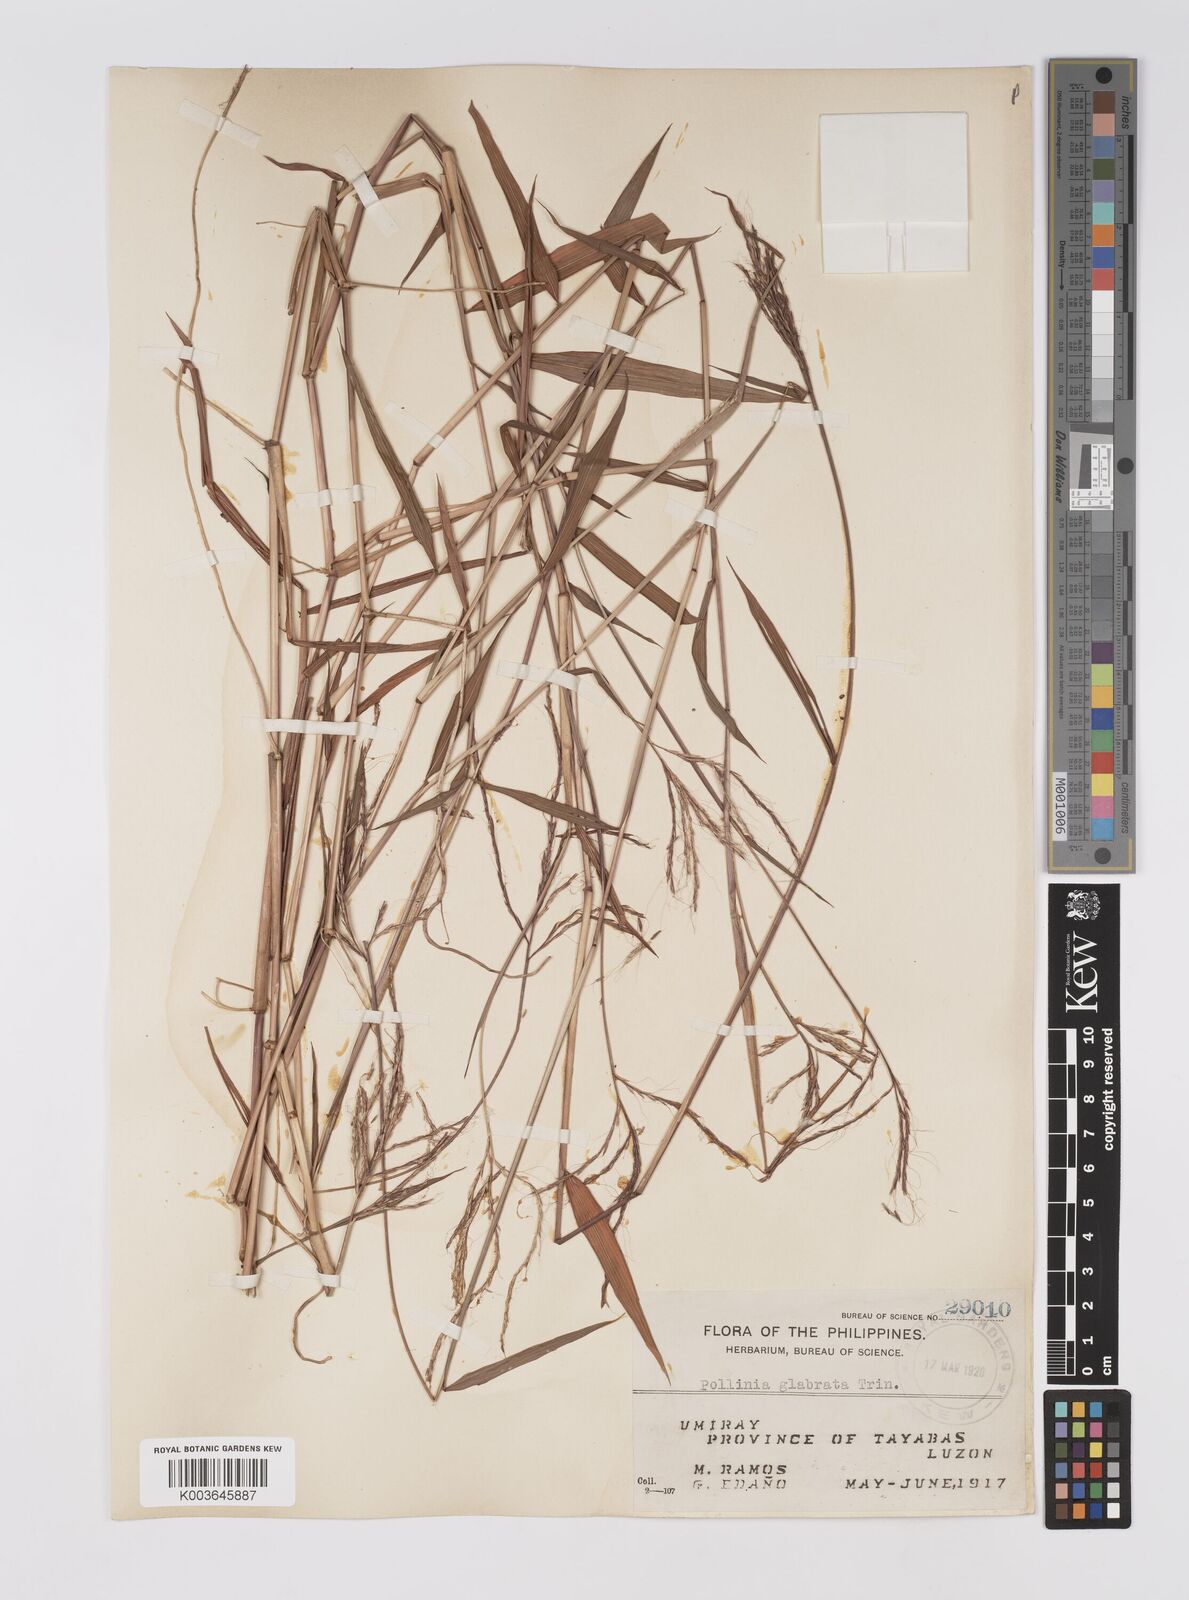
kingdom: Plantae
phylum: Tracheophyta
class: Liliopsida
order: Poales
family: Poaceae
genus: Microstegium
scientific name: Microstegium glabratum
